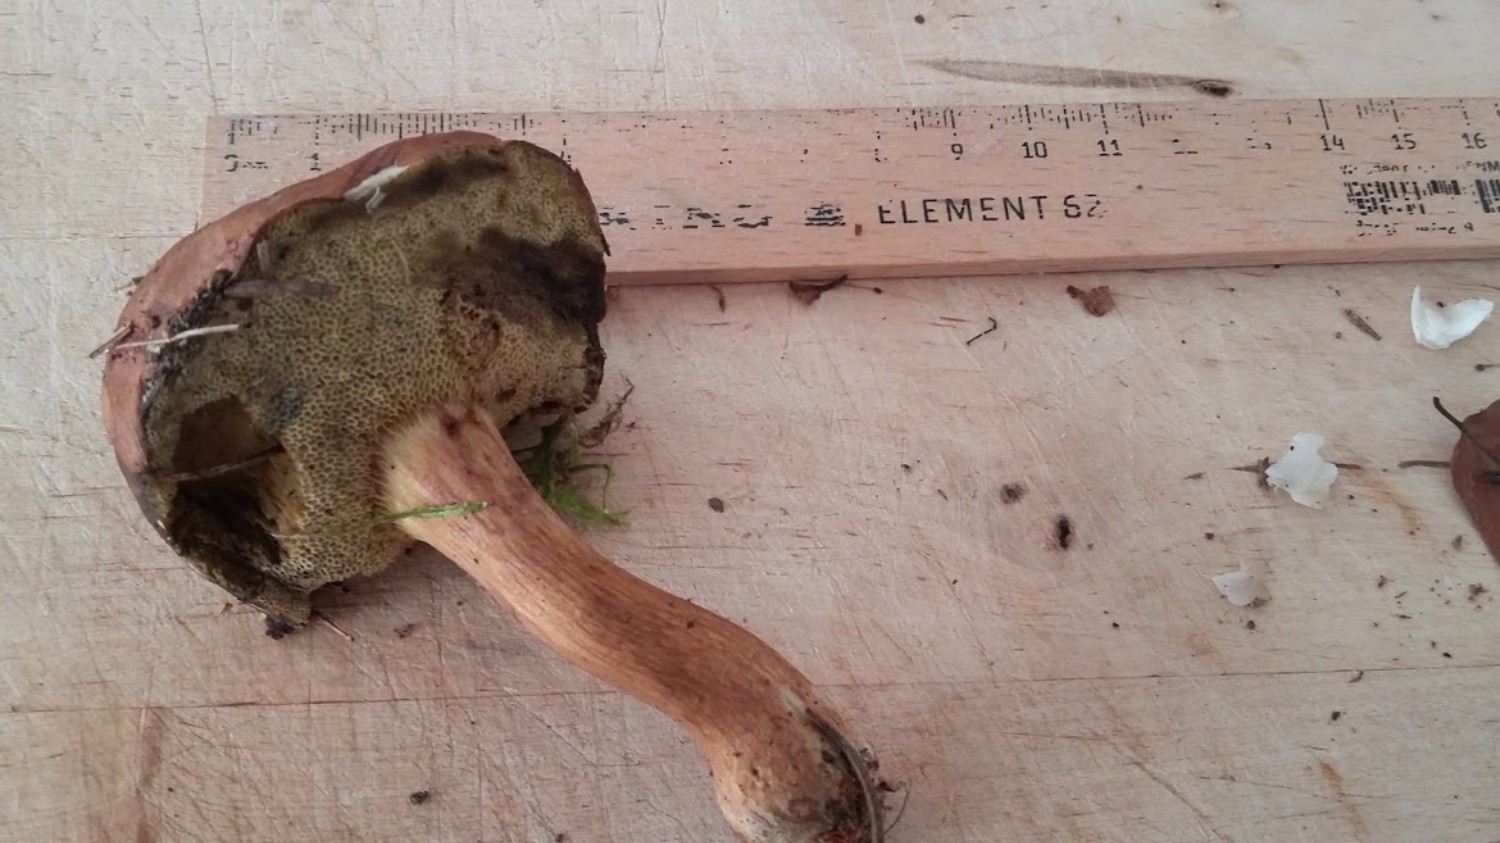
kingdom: Fungi
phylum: Basidiomycota
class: Agaricomycetes
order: Boletales
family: Boletaceae
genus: Imleria
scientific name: Imleria badia
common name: brunstokket rørhat
